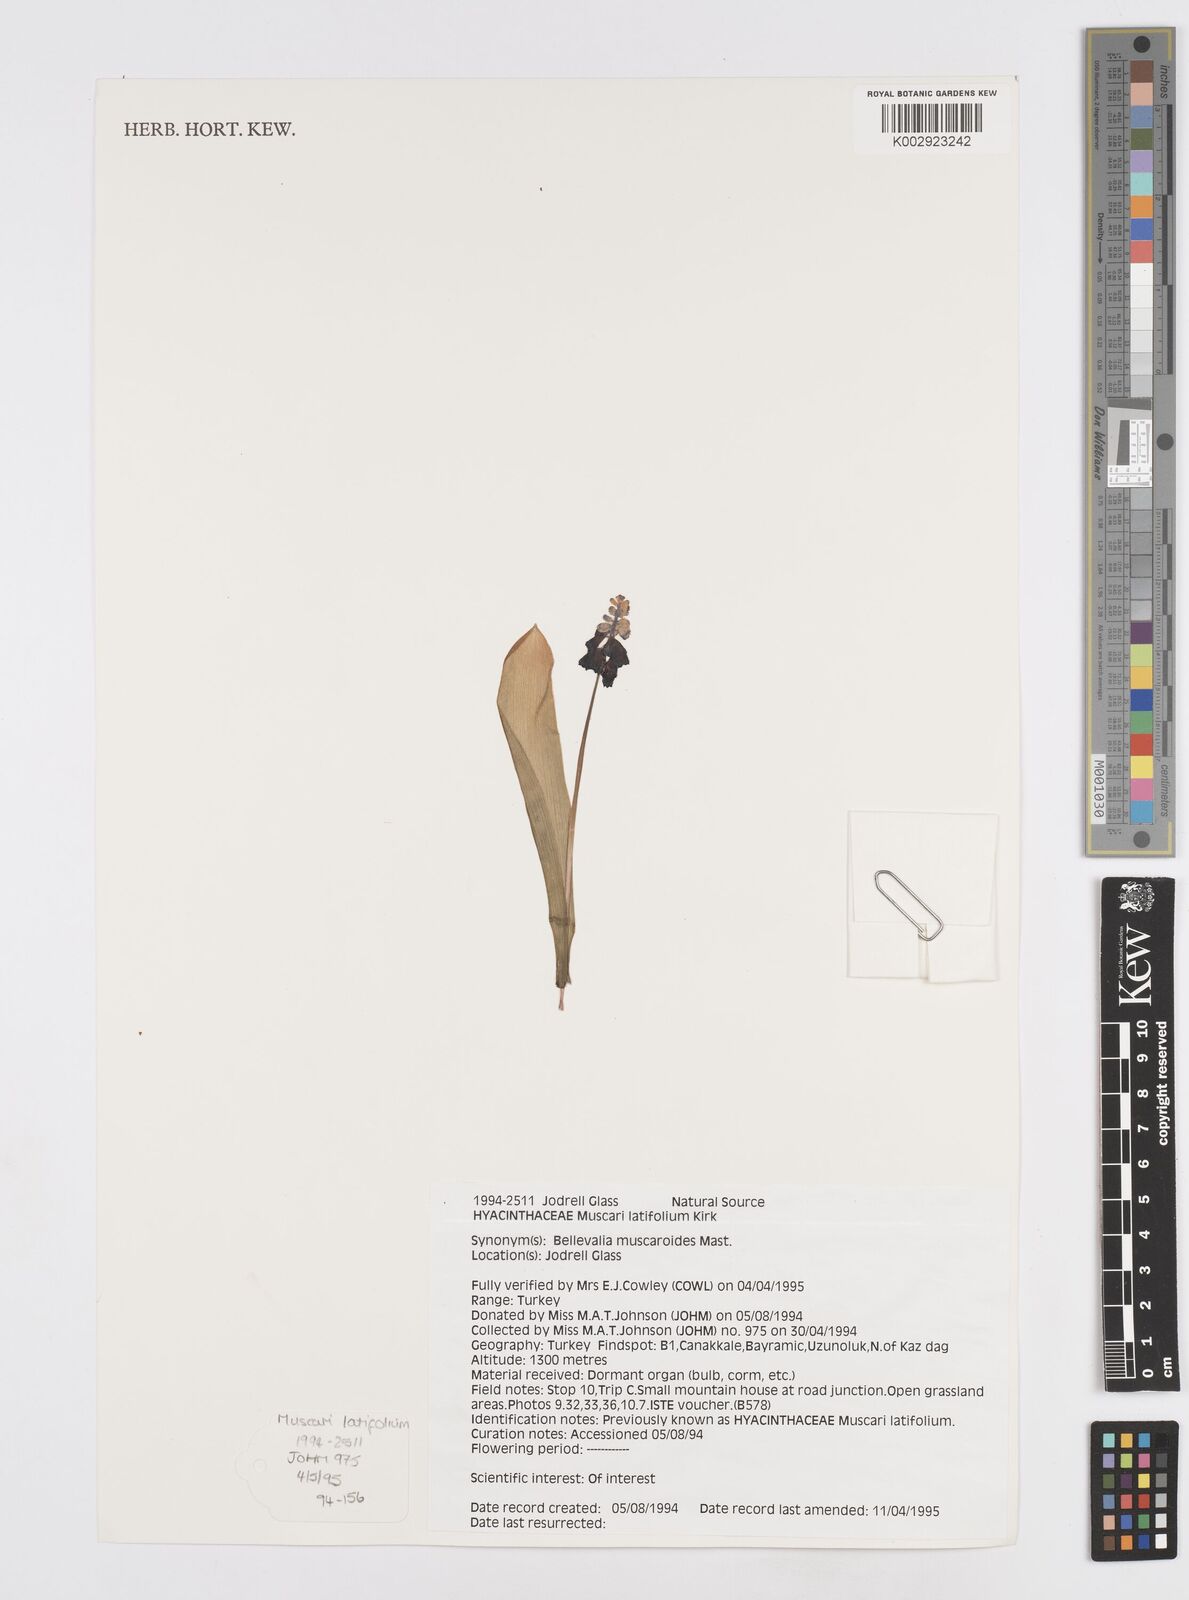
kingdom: Plantae
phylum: Tracheophyta
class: Liliopsida
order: Asparagales
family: Asparagaceae
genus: Muscari
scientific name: Muscari latifolium
